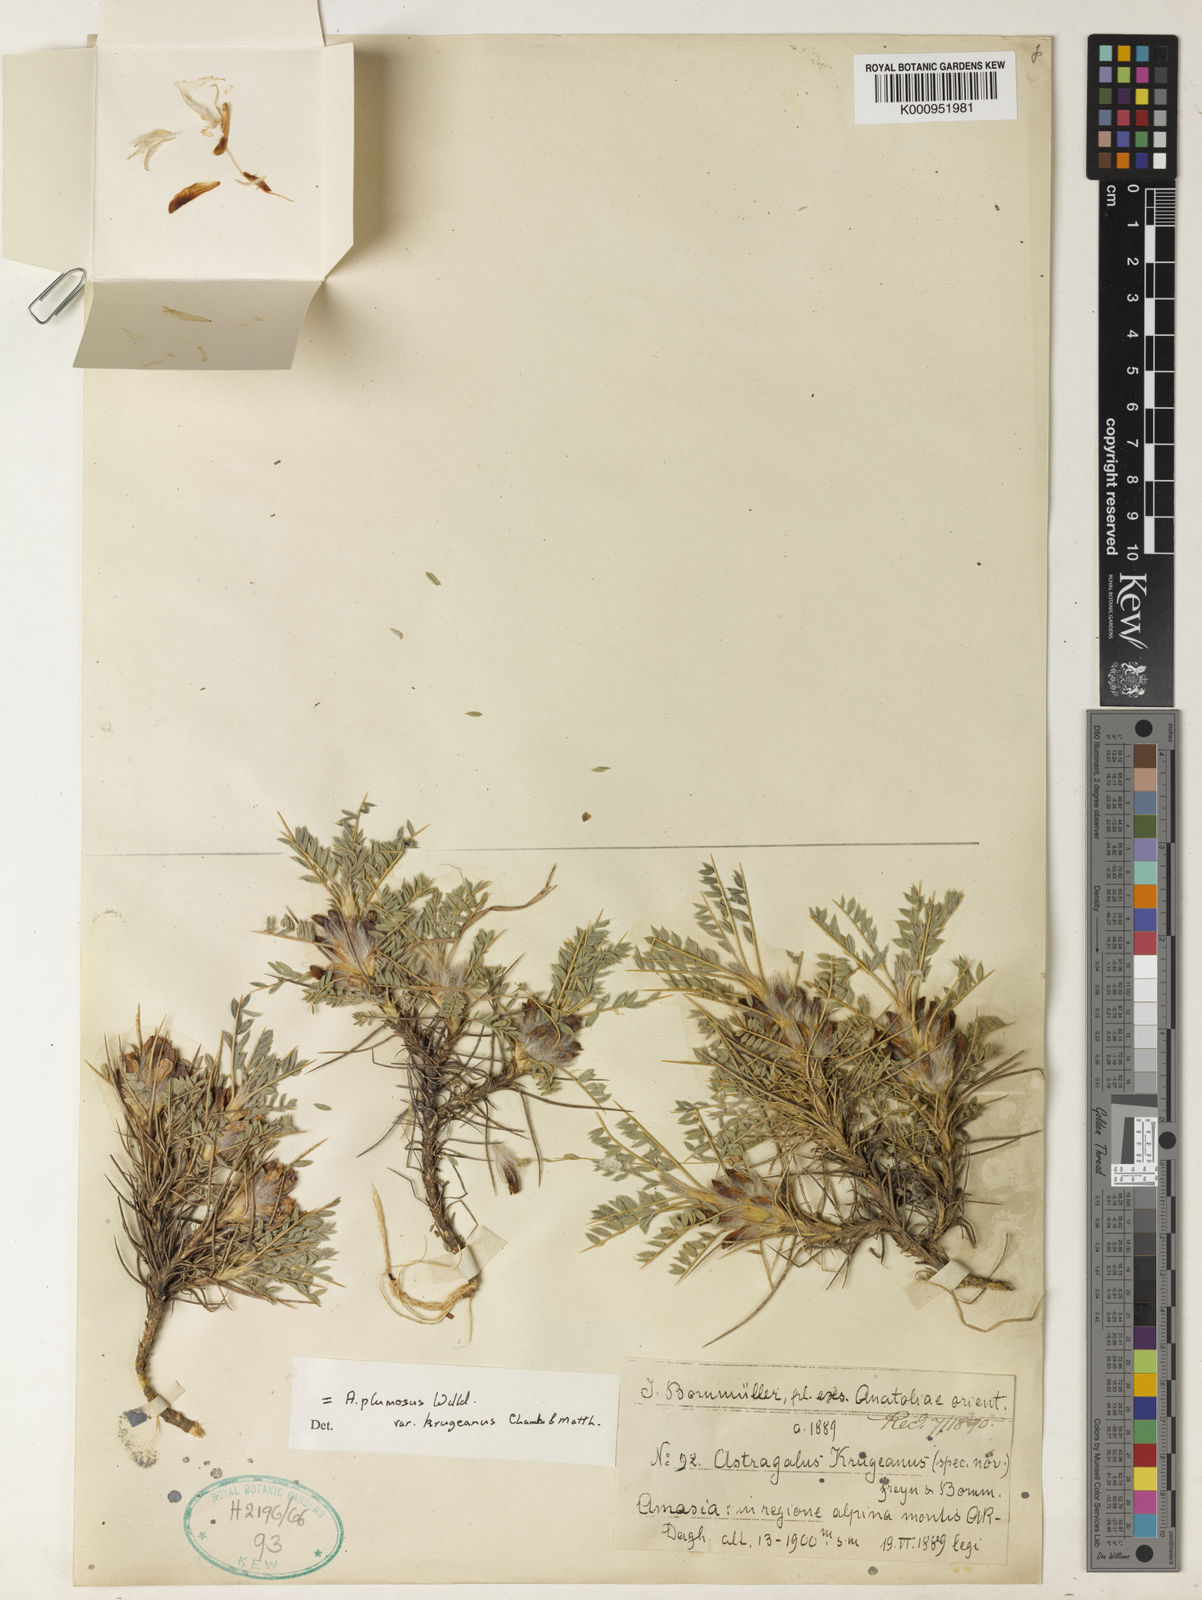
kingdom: Plantae
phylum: Tracheophyta
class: Magnoliopsida
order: Fabales
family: Fabaceae
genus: Astragalus
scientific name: Astragalus plumosus
